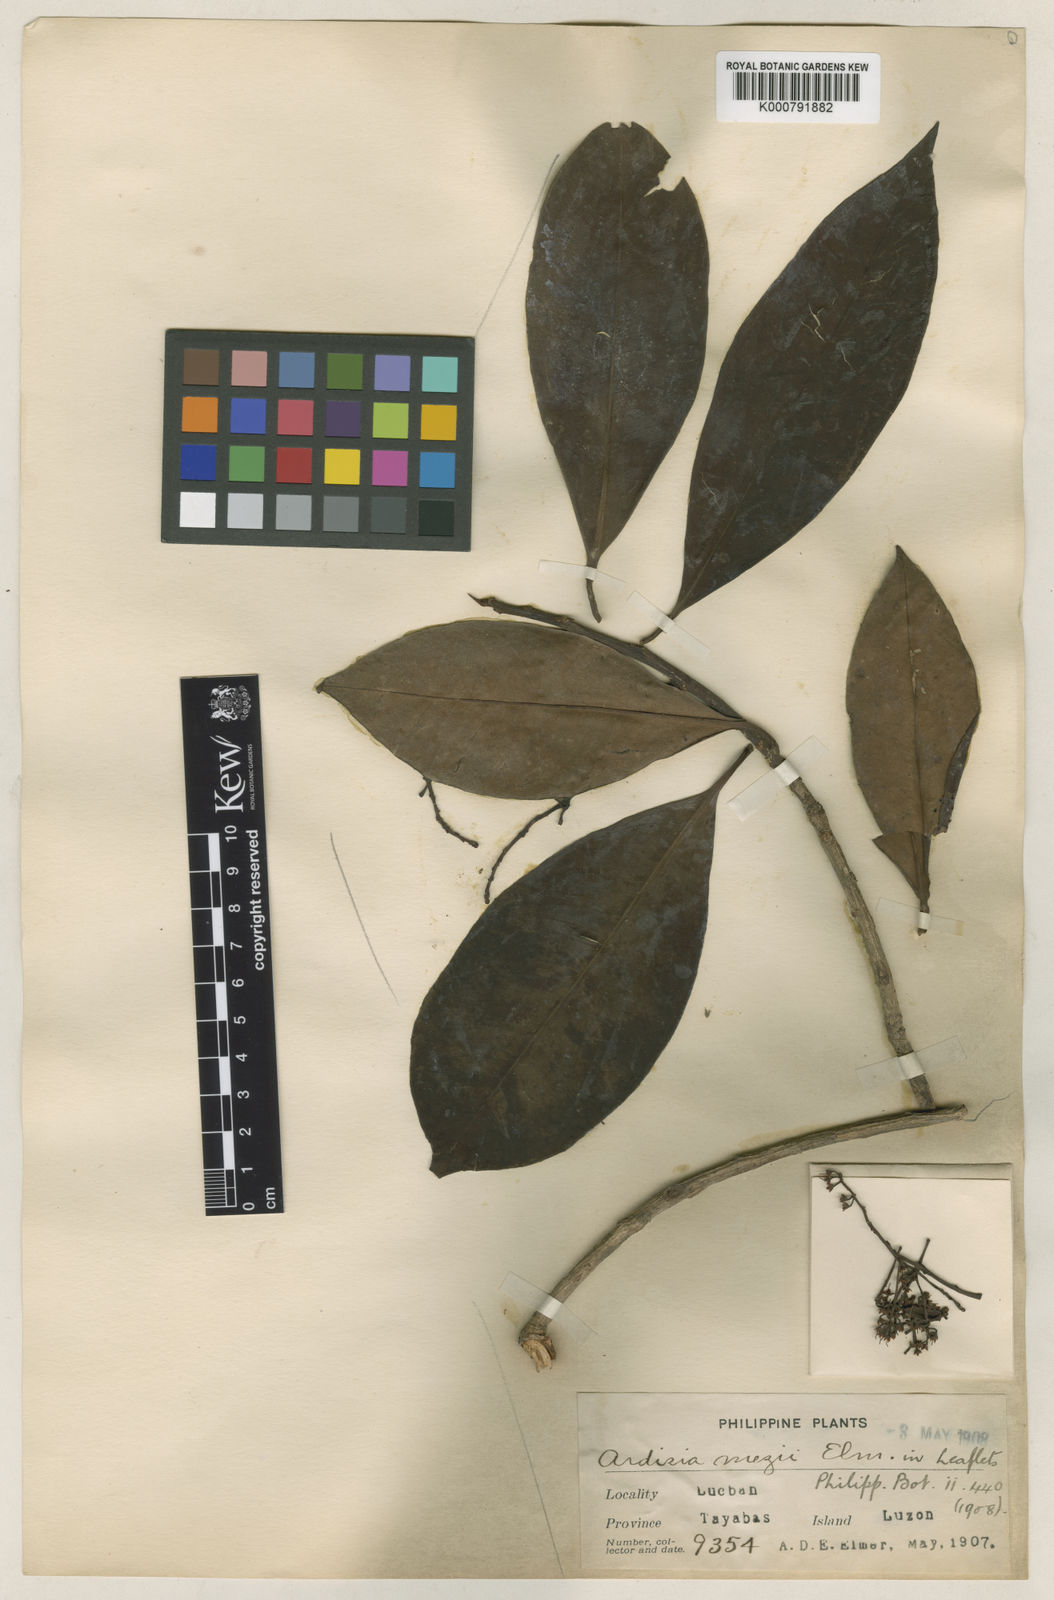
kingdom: Plantae
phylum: Tracheophyta
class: Magnoliopsida
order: Ericales
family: Primulaceae
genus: Ardisia
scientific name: Ardisia mezii
